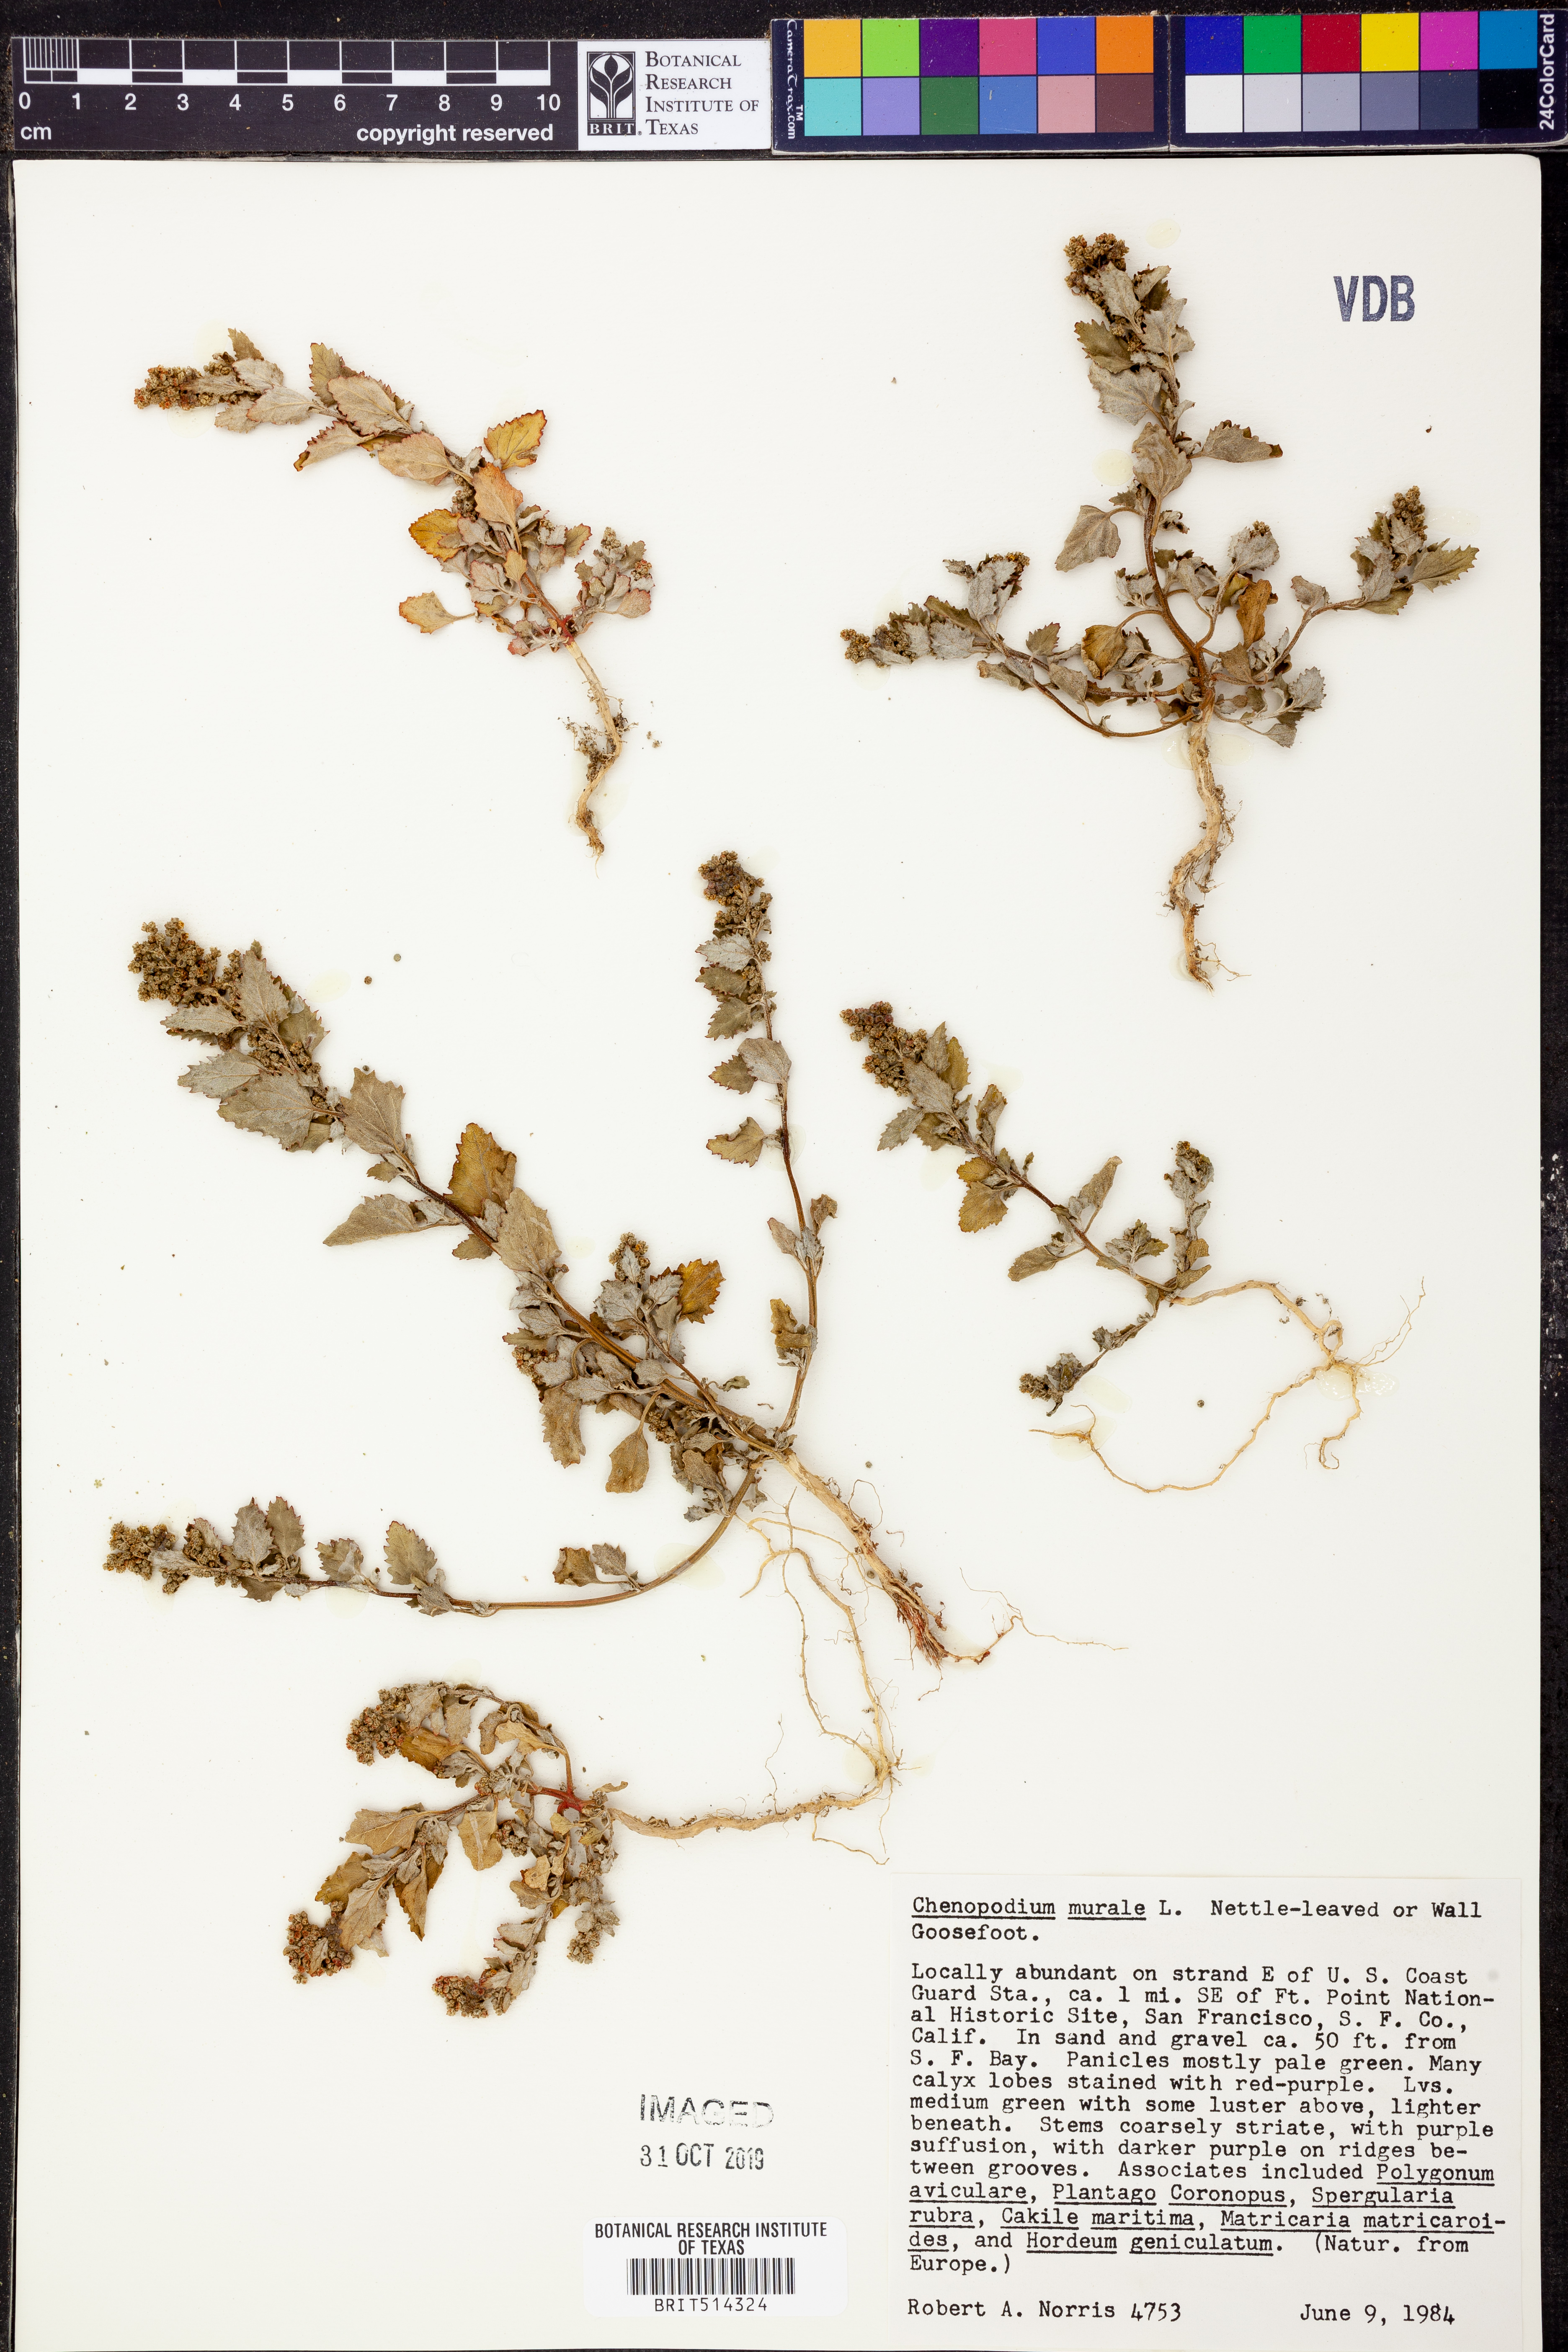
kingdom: Plantae
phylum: Tracheophyta
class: Magnoliopsida
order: Caryophyllales
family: Amaranthaceae
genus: Chenopodiastrum
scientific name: Chenopodiastrum murale
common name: Sowbane
